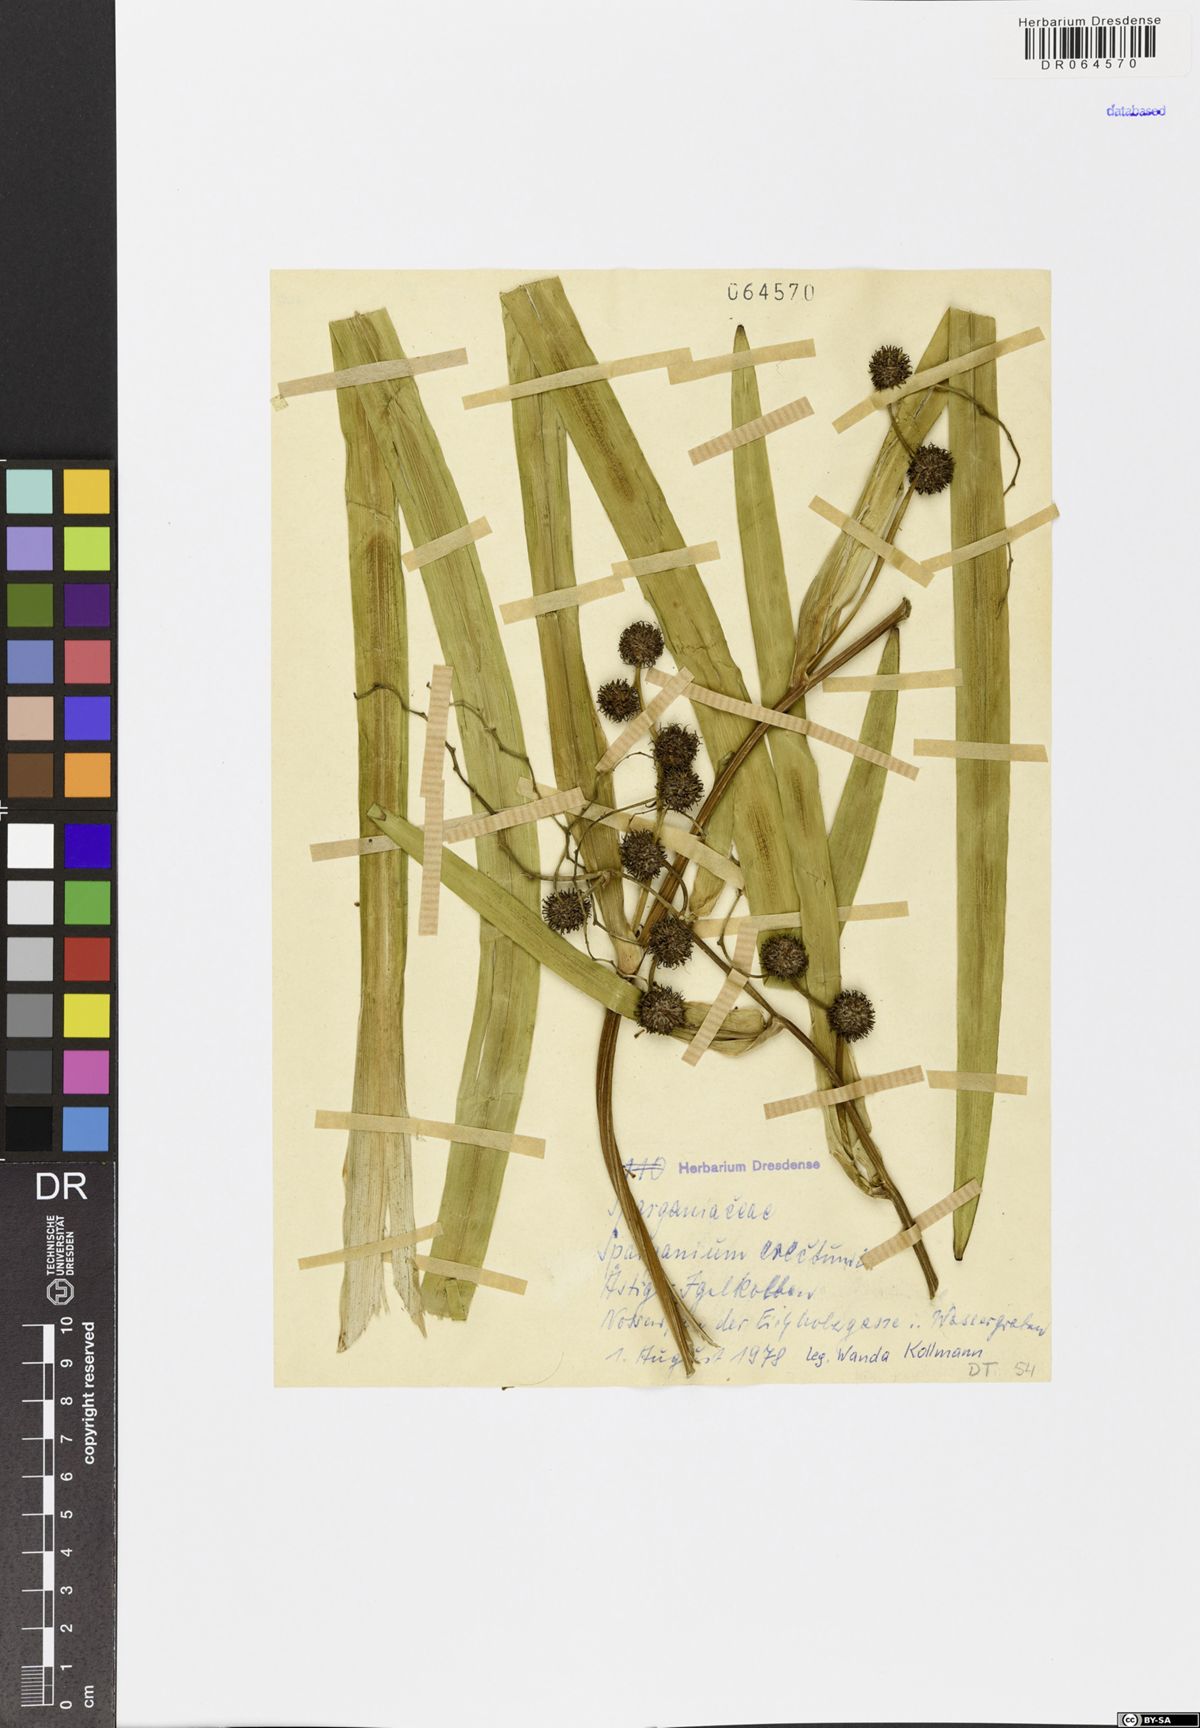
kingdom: Plantae
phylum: Tracheophyta
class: Liliopsida
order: Poales
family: Typhaceae
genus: Sparganium
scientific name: Sparganium erectum
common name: Branched bur-reed
